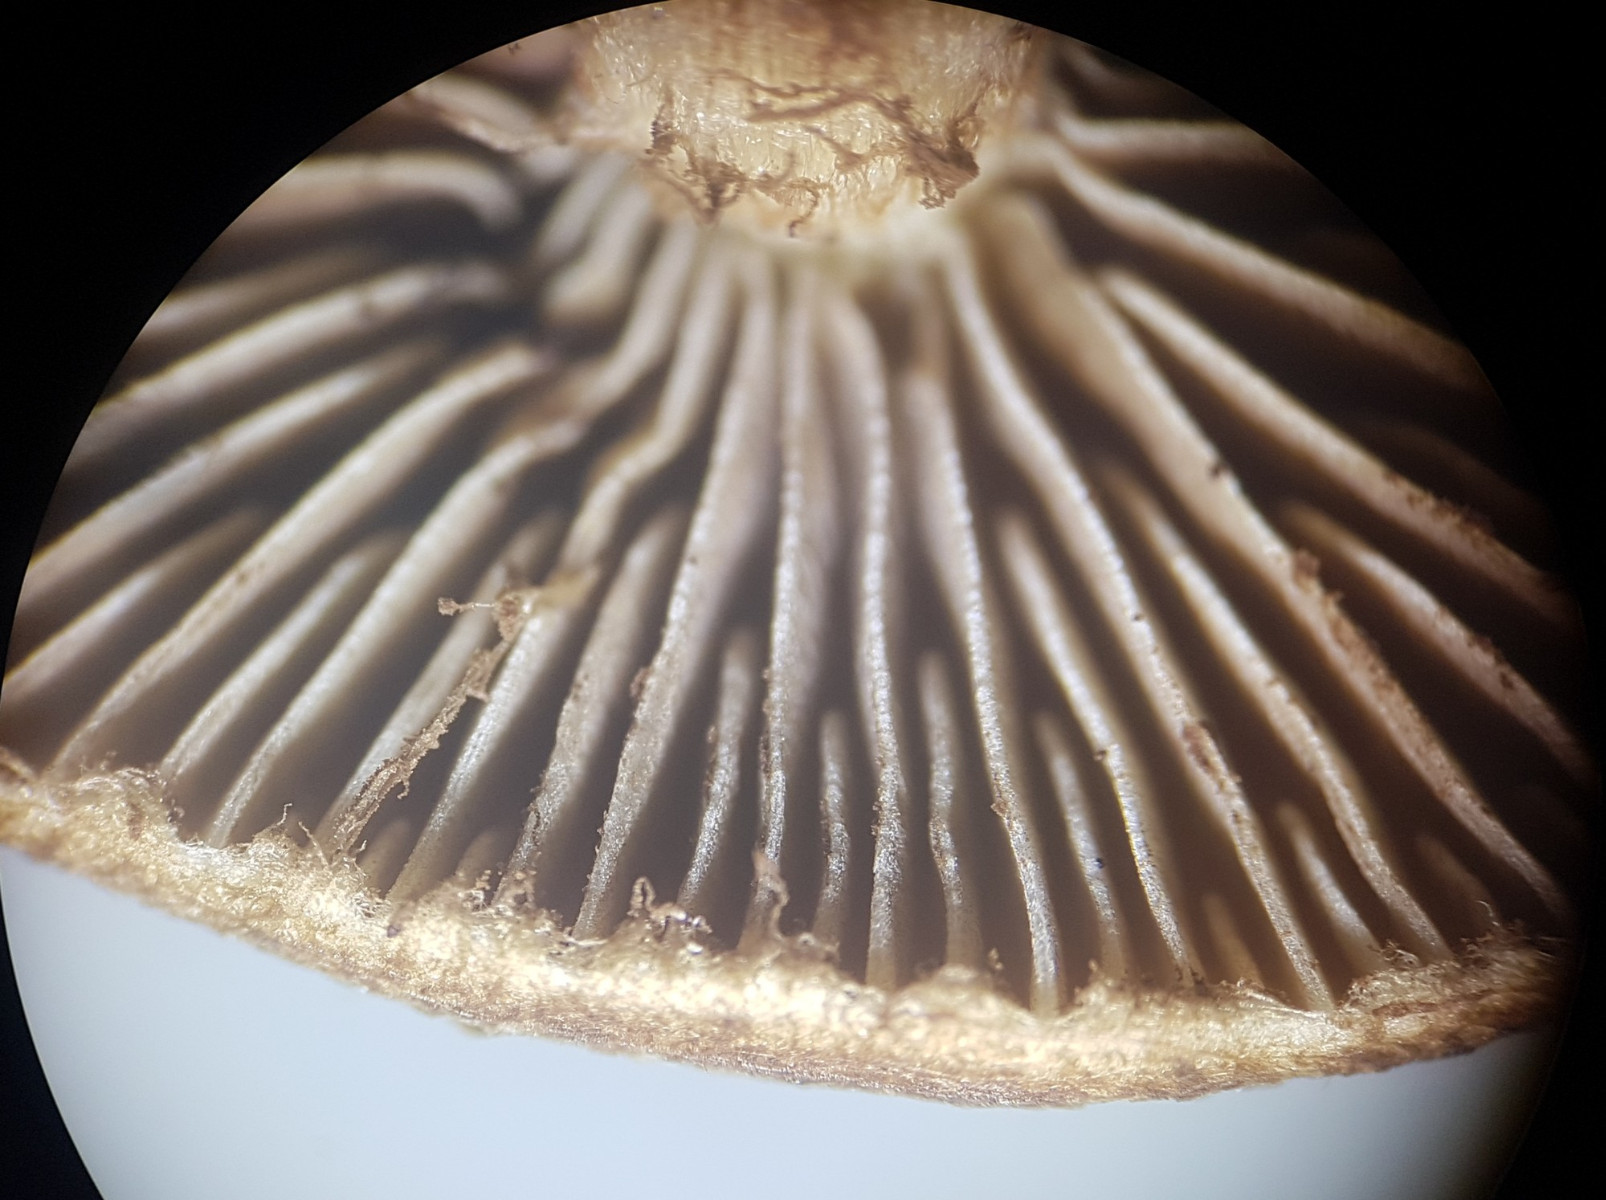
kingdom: Fungi
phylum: Basidiomycota
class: Agaricomycetes
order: Agaricales
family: Inocybaceae
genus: Inocybe
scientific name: Inocybe dulcamara
